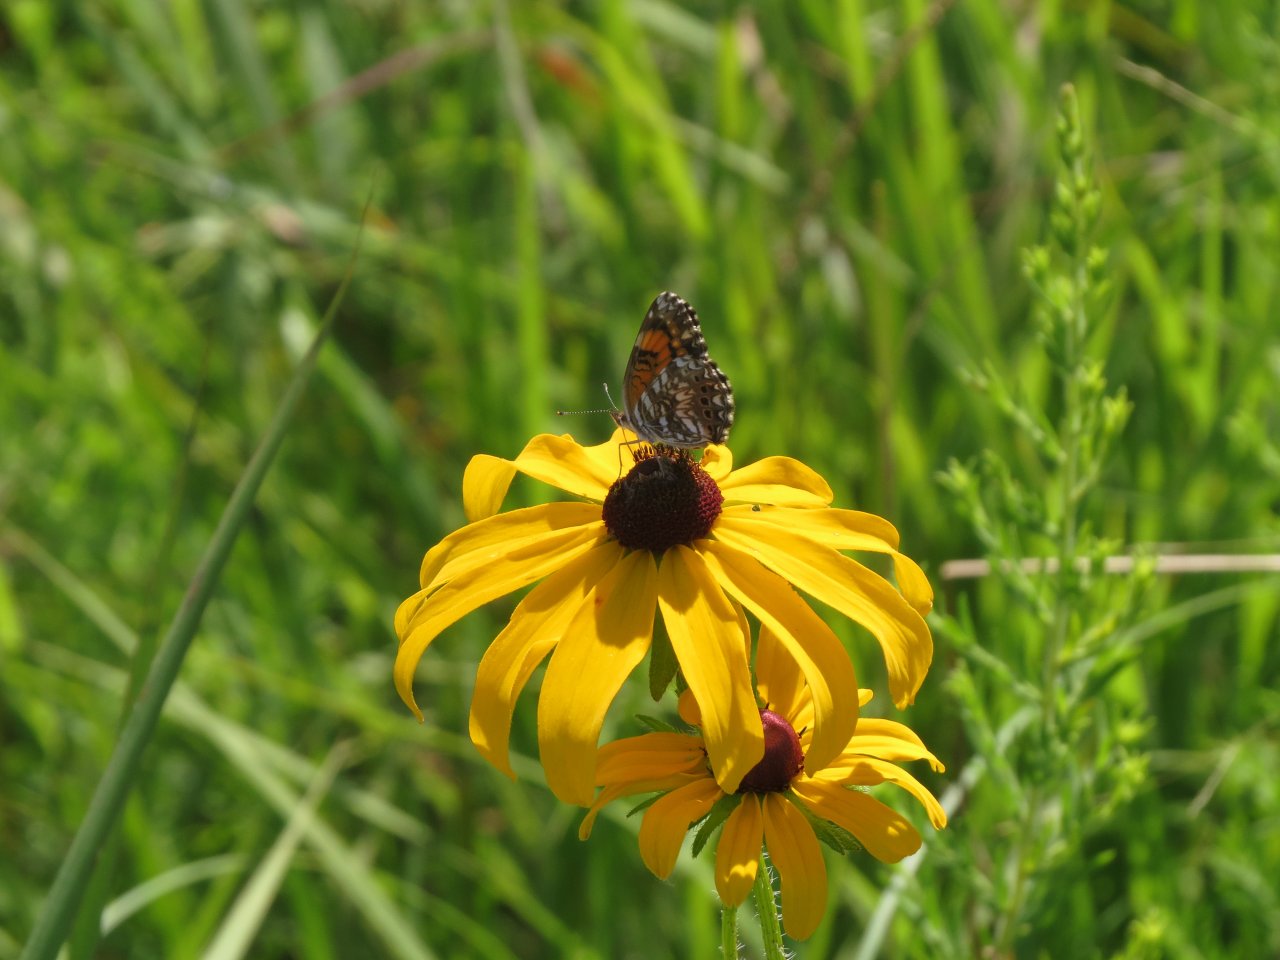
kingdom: Animalia
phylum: Arthropoda
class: Insecta
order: Lepidoptera
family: Nymphalidae
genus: Chlosyne
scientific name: Chlosyne gorgone
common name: Gorgone Checkerspot
